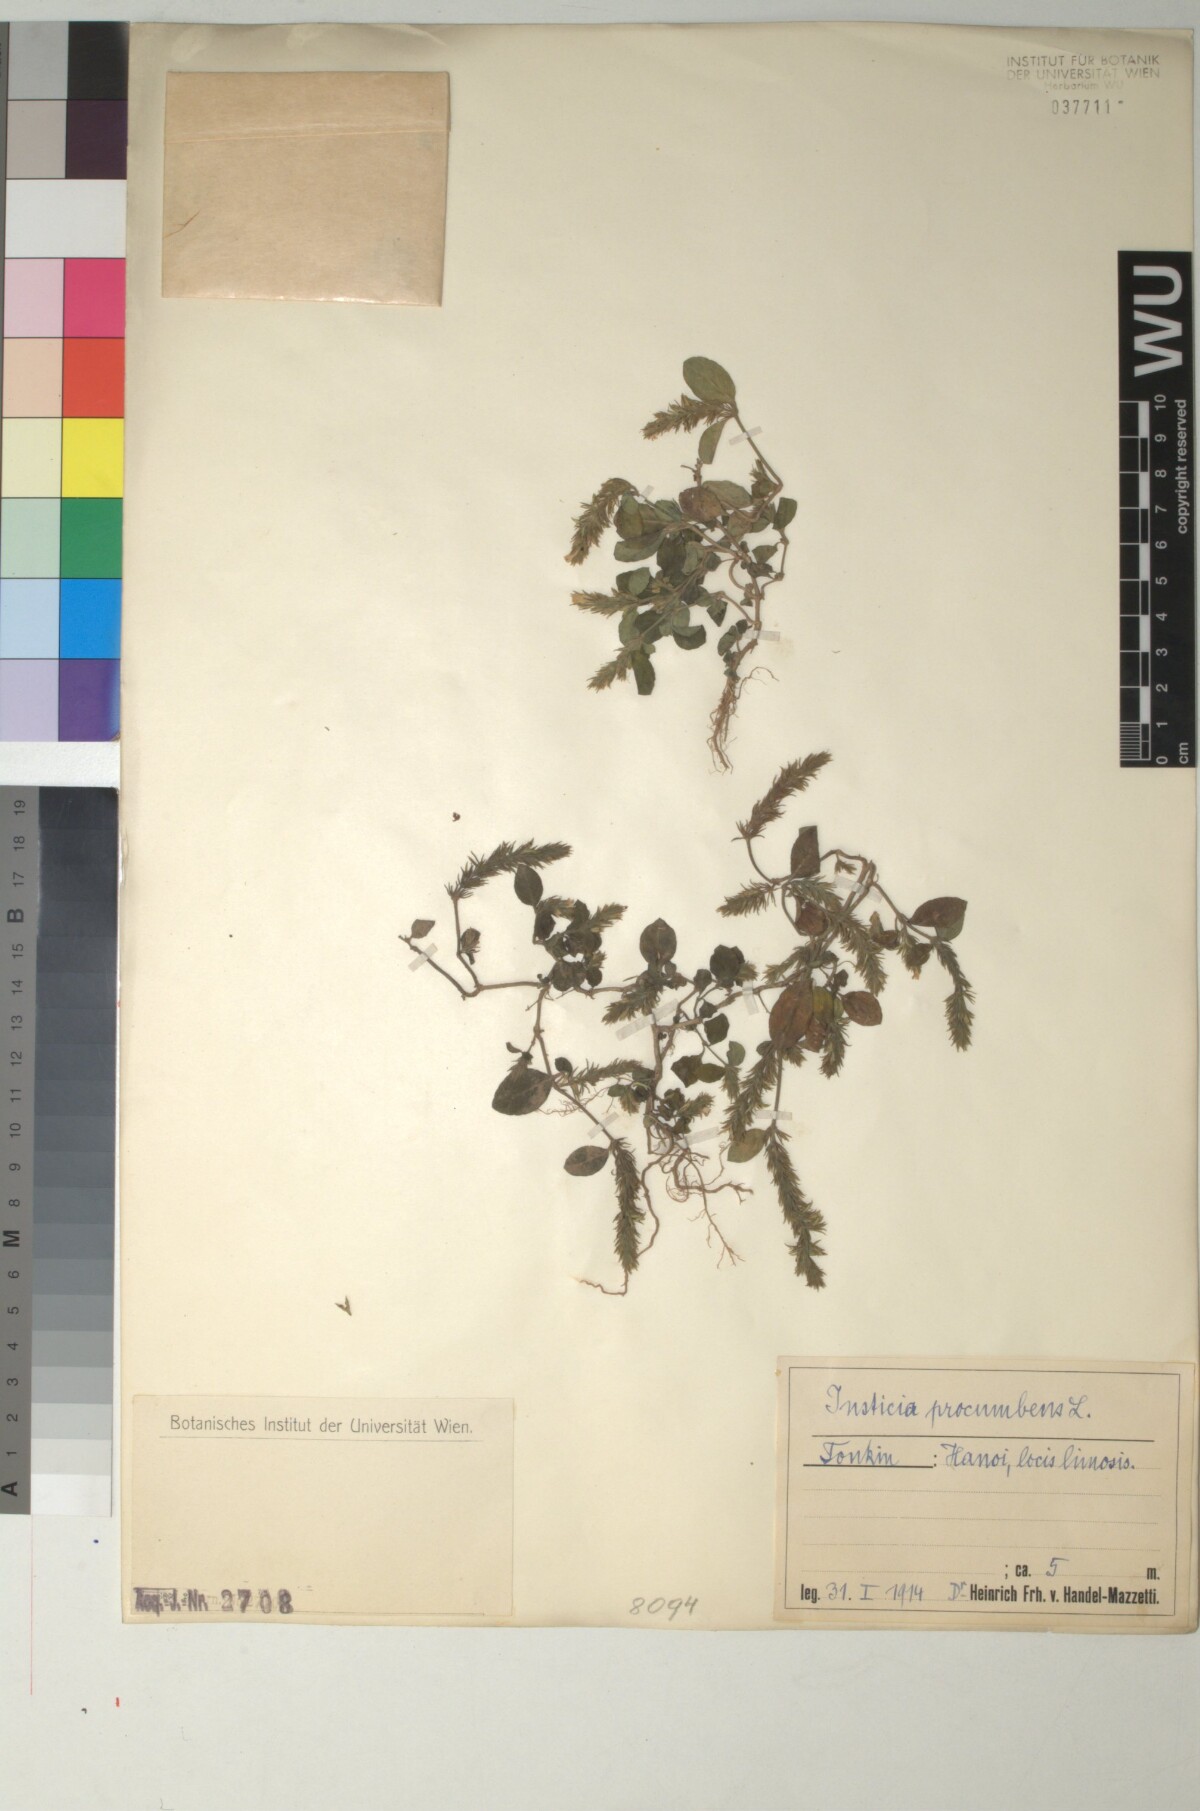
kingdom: Plantae
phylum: Tracheophyta
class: Magnoliopsida
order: Lamiales
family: Acanthaceae
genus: Rostellularia
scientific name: Rostellularia procumbens
